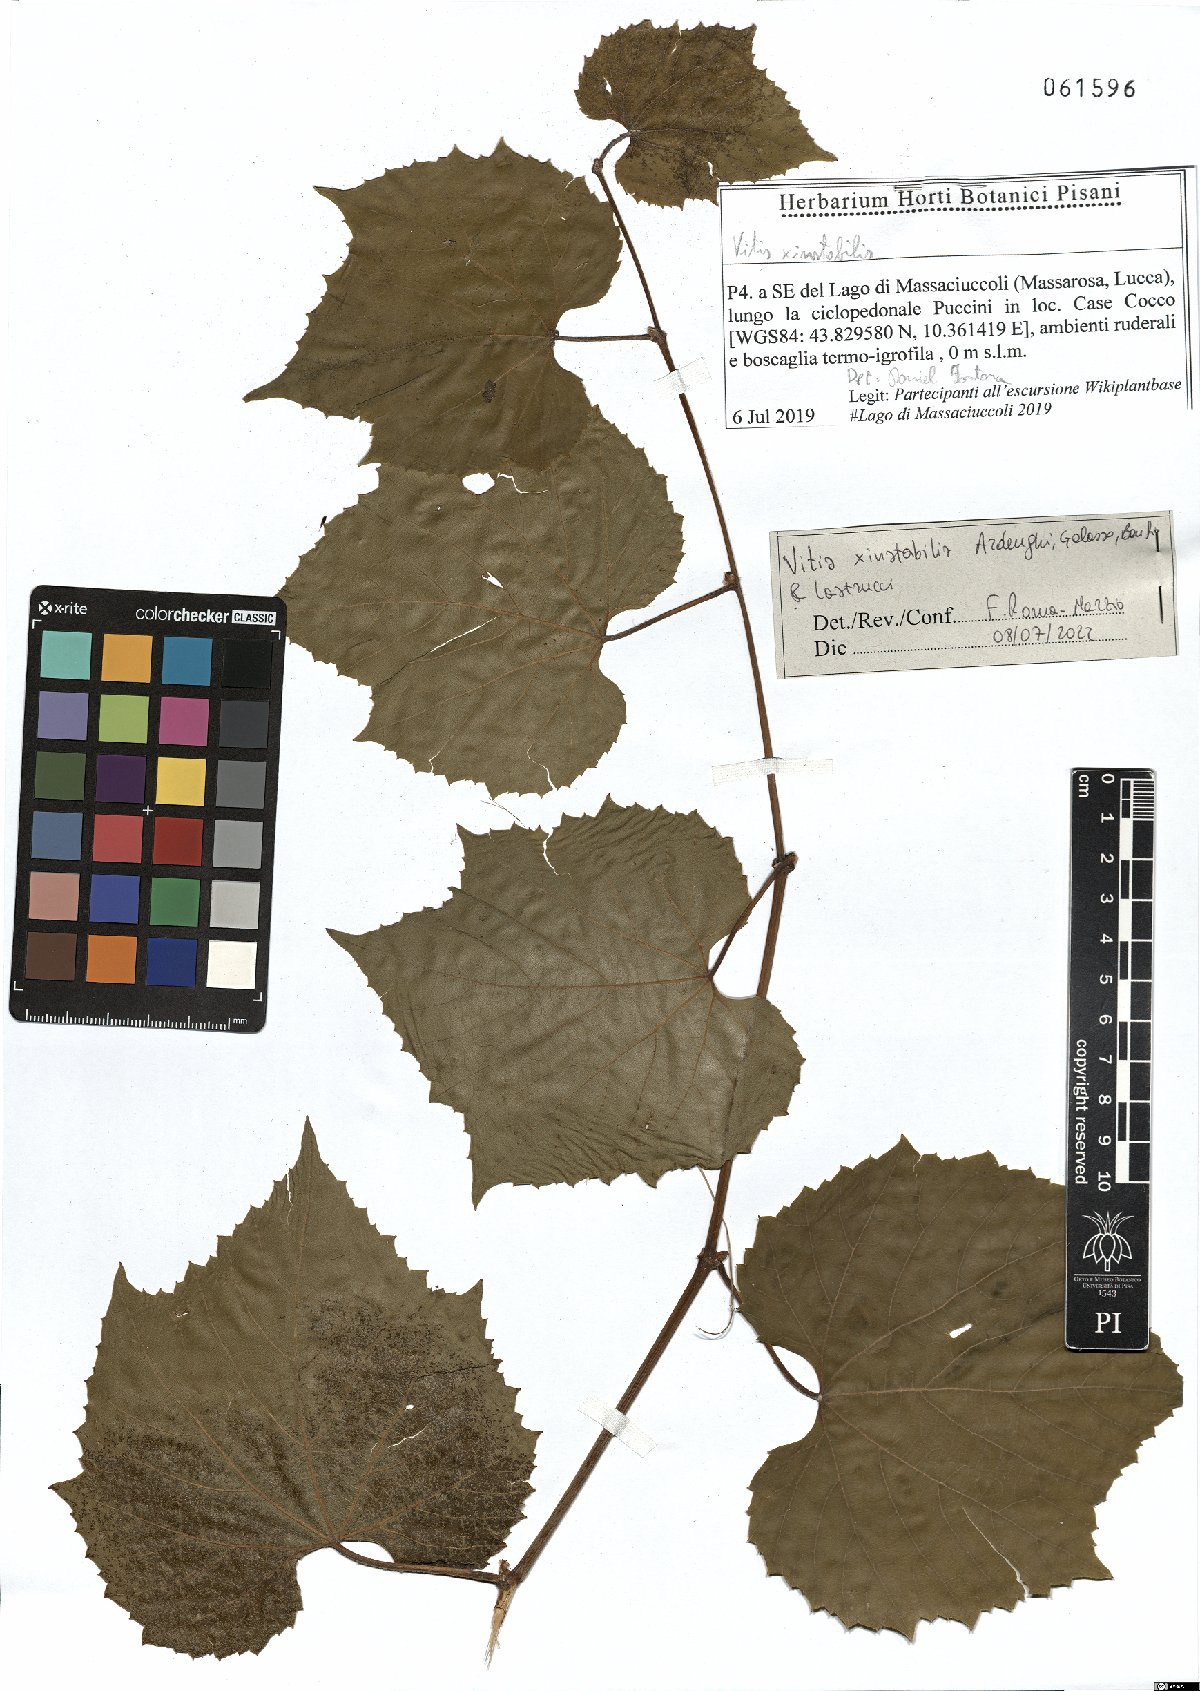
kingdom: Plantae
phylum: Tracheophyta
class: Magnoliopsida
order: Vitales
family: Vitaceae
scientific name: Vitaceae
